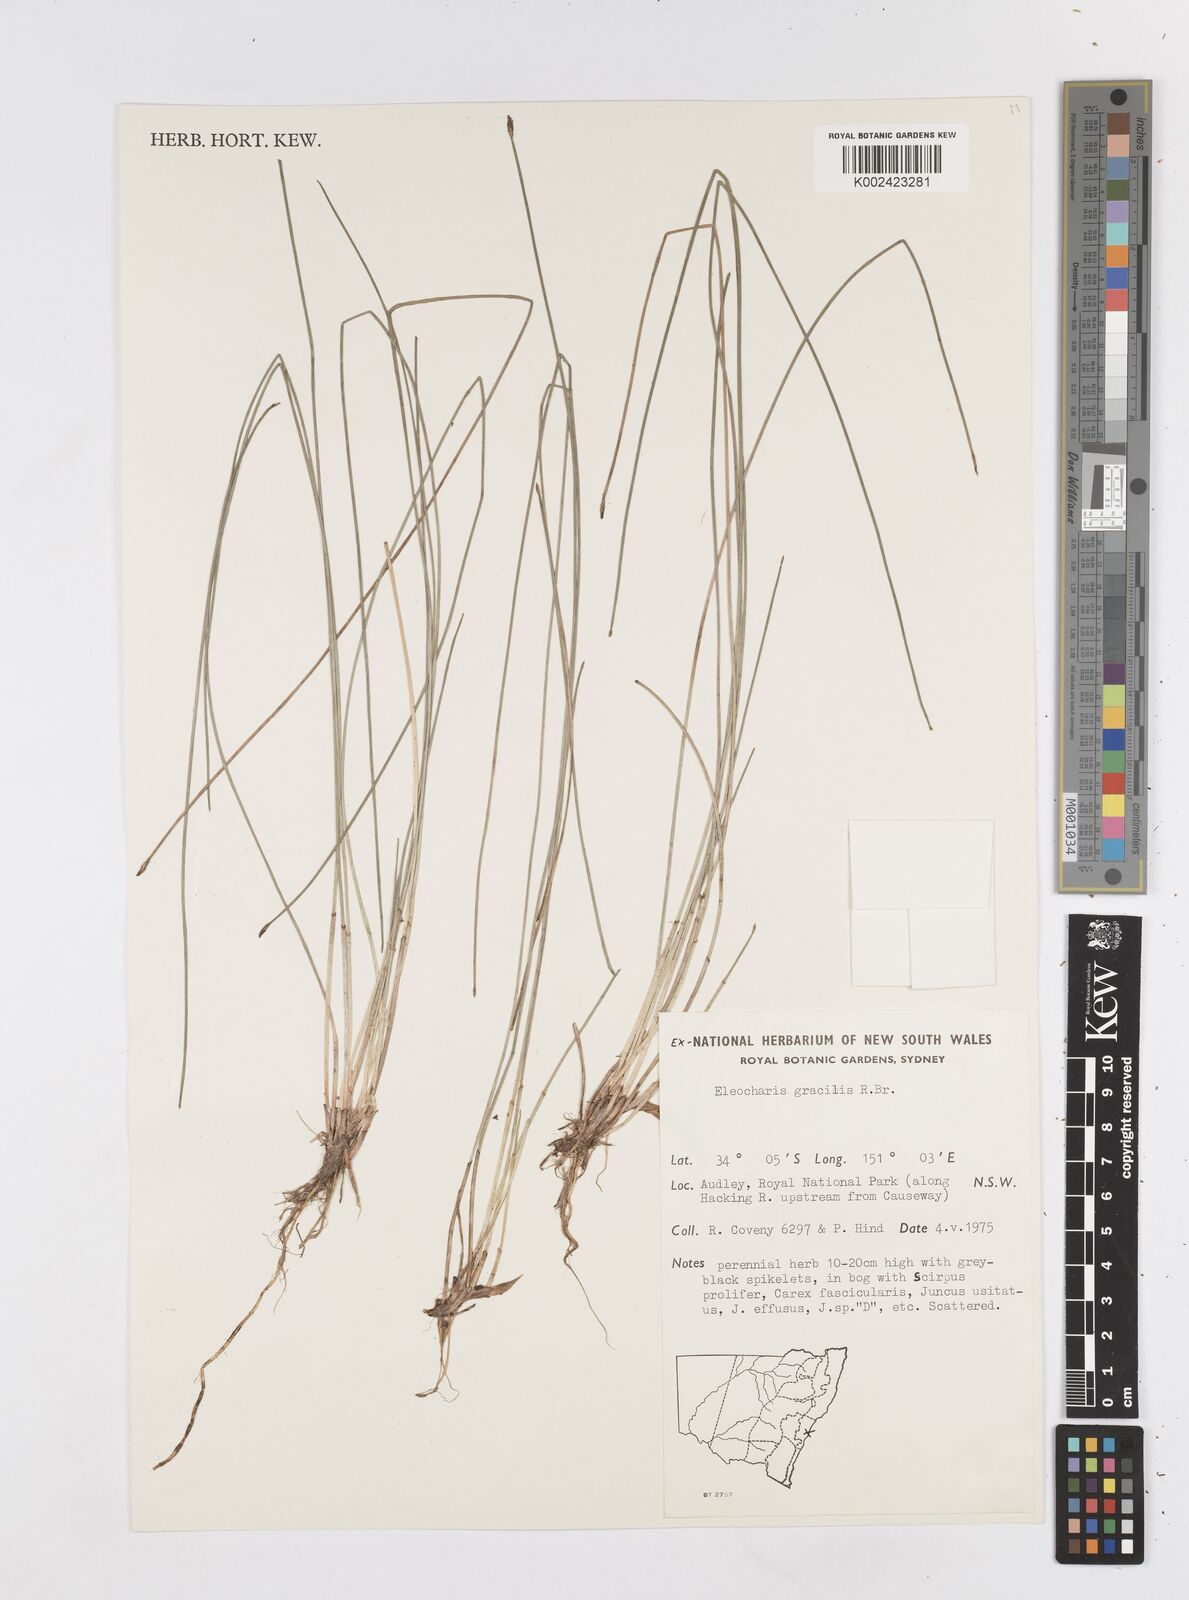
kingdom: Plantae
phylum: Tracheophyta
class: Liliopsida
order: Poales
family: Cyperaceae
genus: Eleocharis
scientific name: Eleocharis multicaulis
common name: Many-stalked spike-rush
